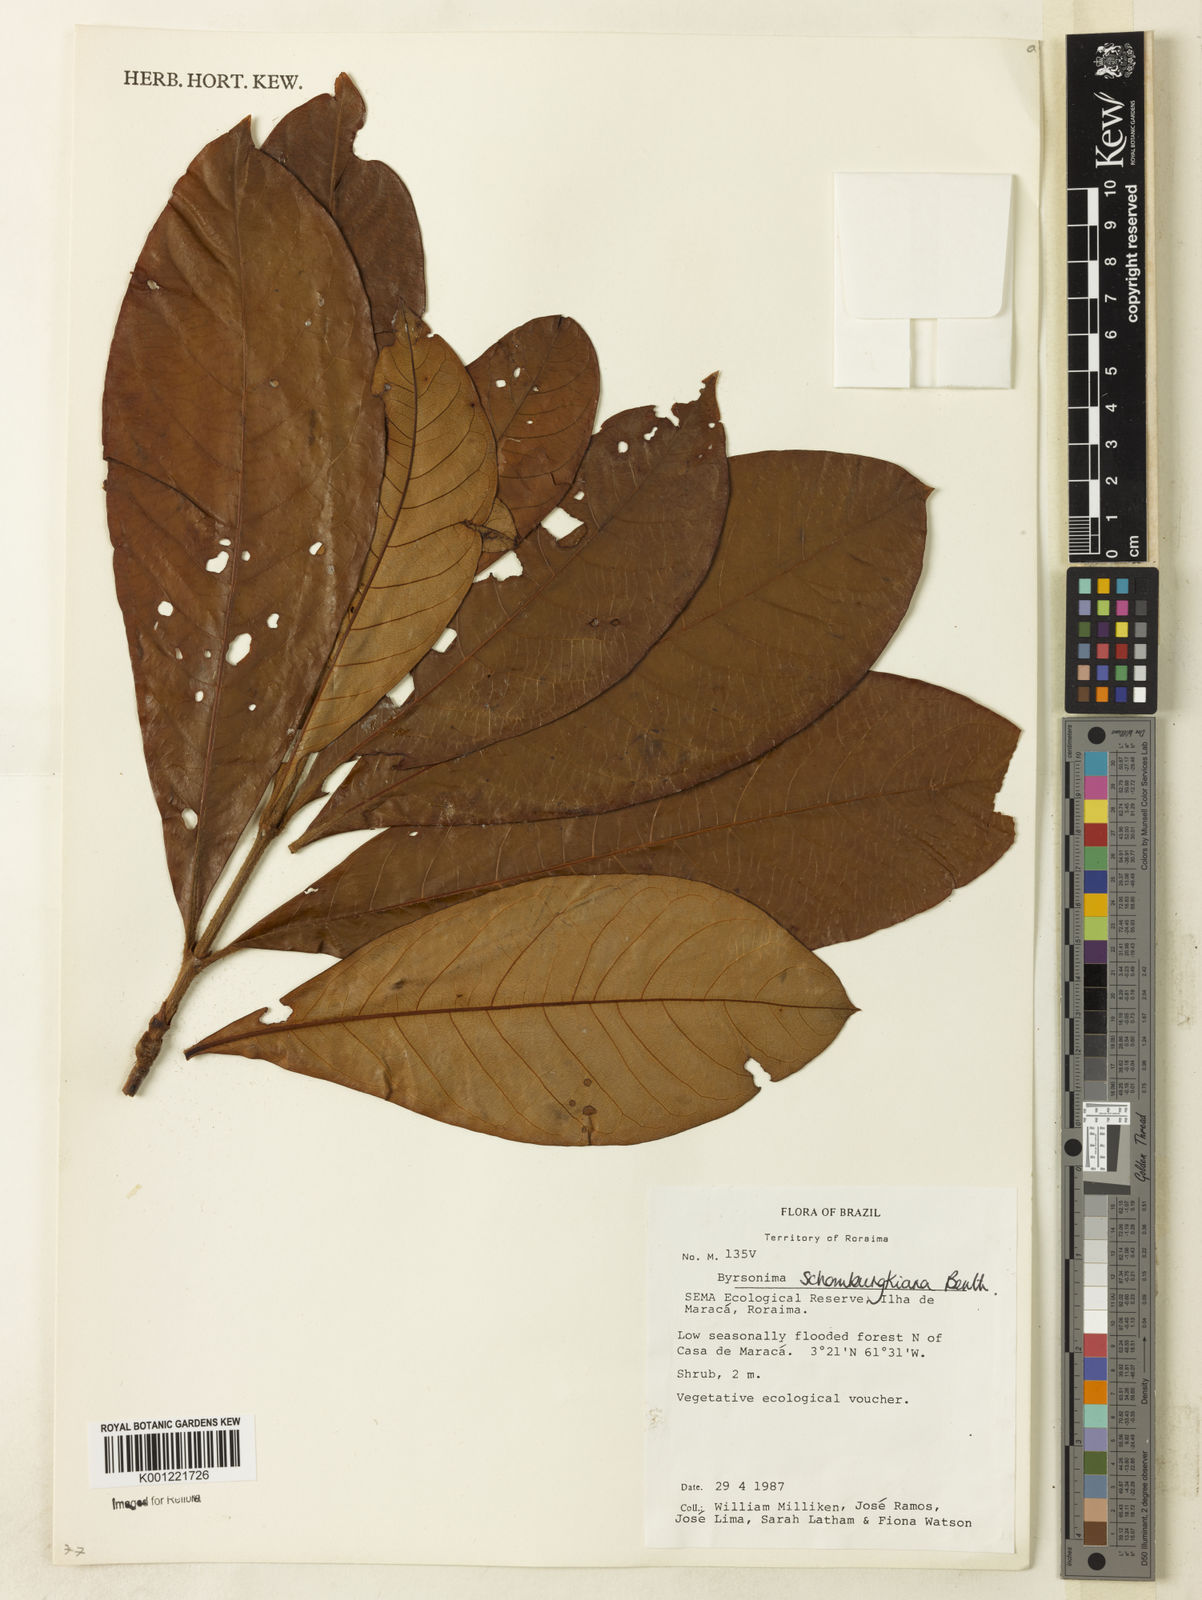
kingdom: Plantae
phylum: Tracheophyta
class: Magnoliopsida
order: Malpighiales
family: Malpighiaceae
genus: Byrsonima
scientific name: Byrsonima schomburgkiana
